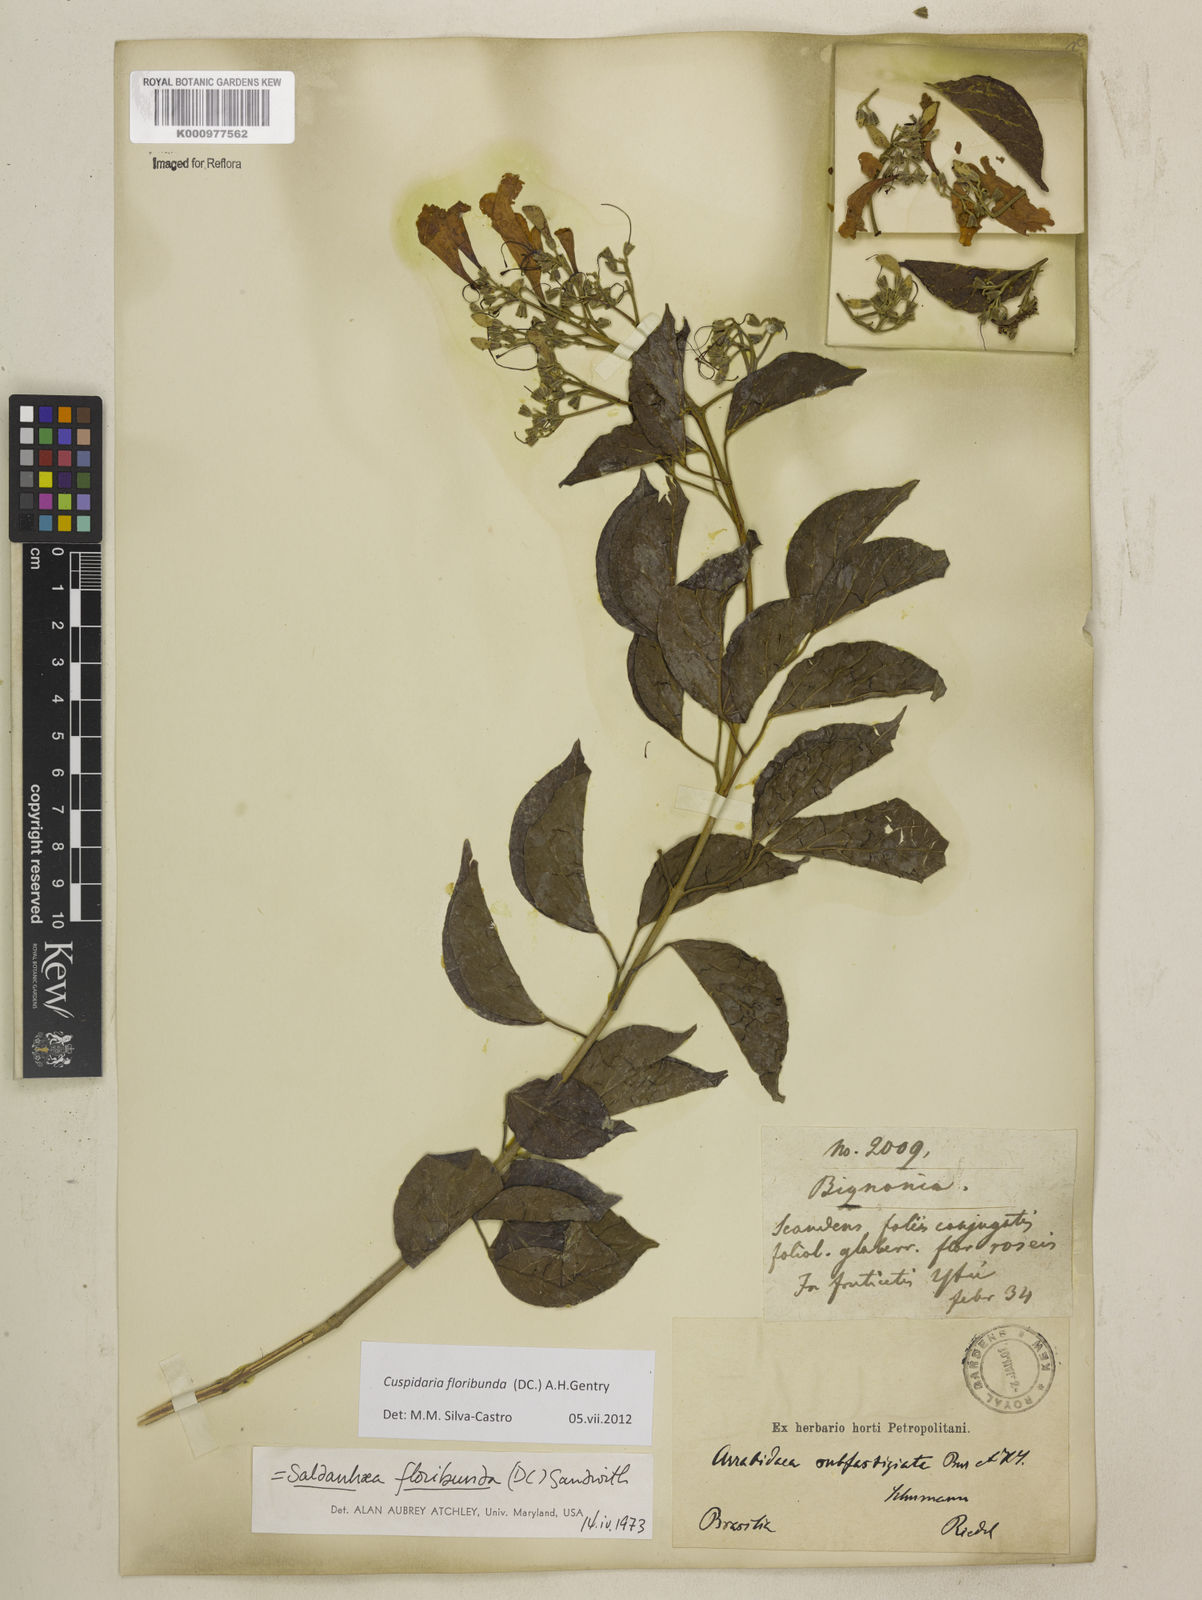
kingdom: Plantae
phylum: Tracheophyta
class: Magnoliopsida
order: Lamiales
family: Bignoniaceae
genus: Cuspidaria
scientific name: Cuspidaria floribunda
